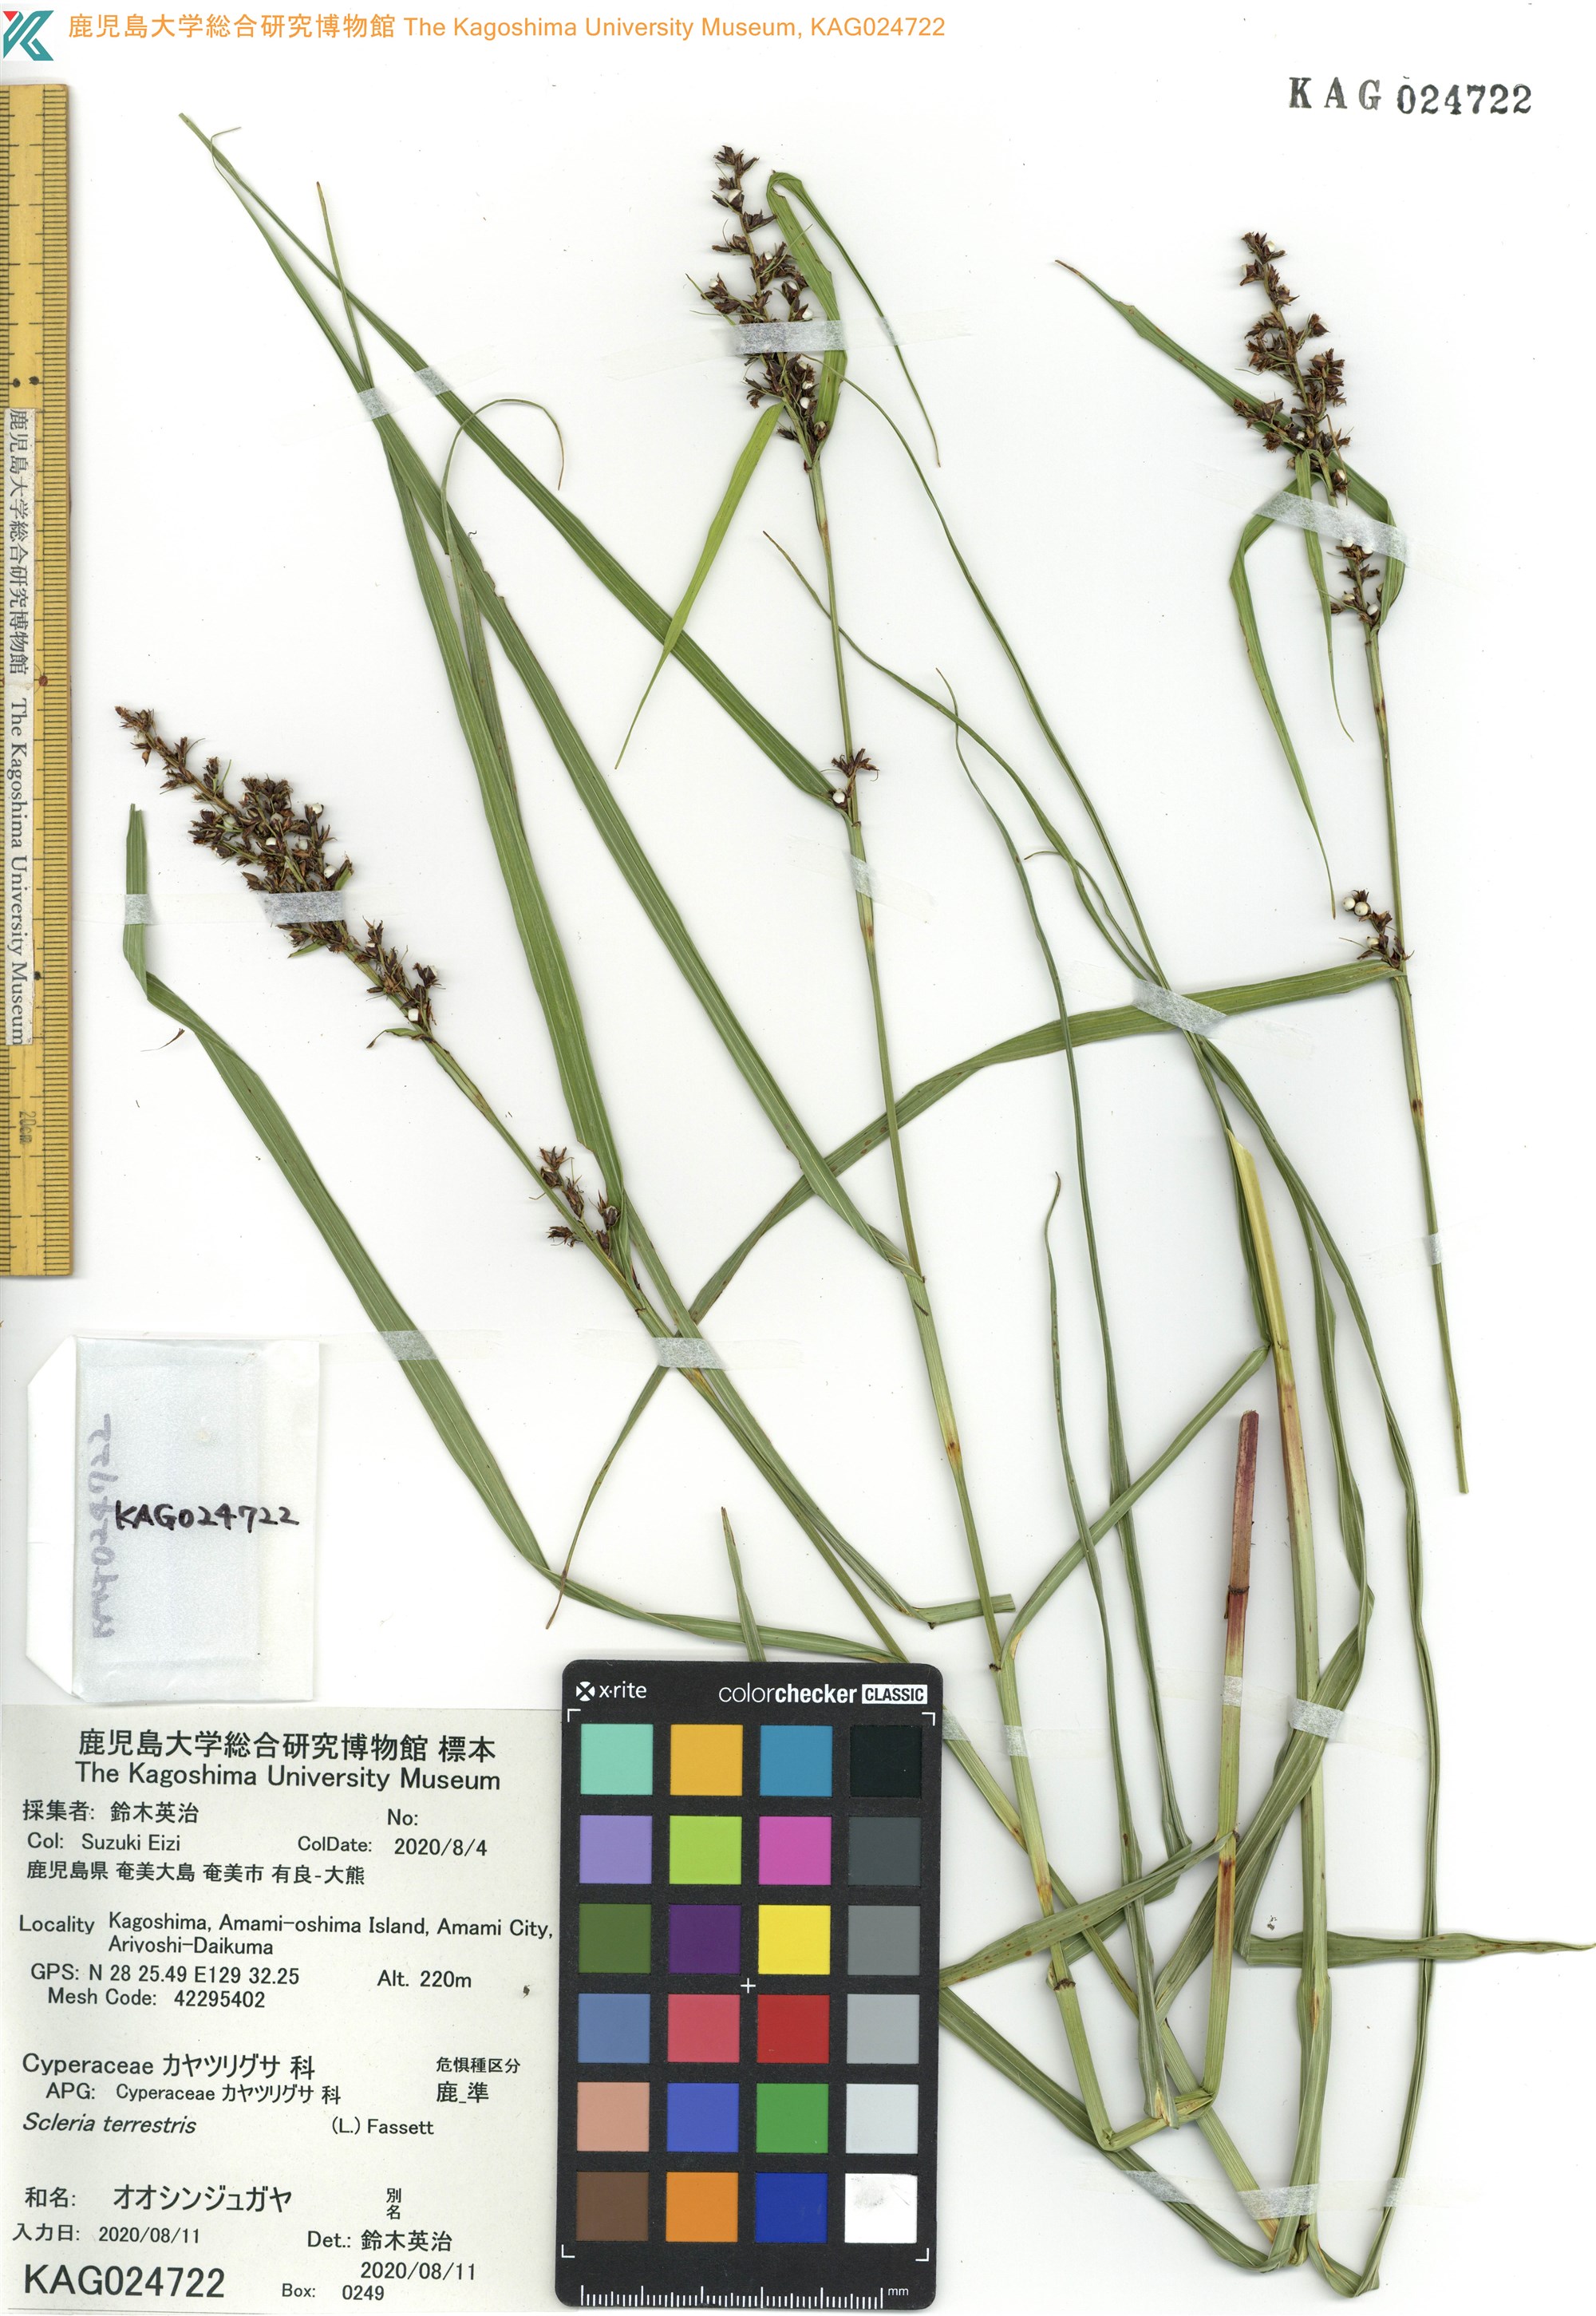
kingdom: Plantae
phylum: Tracheophyta
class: Liliopsida
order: Poales
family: Cyperaceae
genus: Scleria
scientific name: Scleria terrestris
